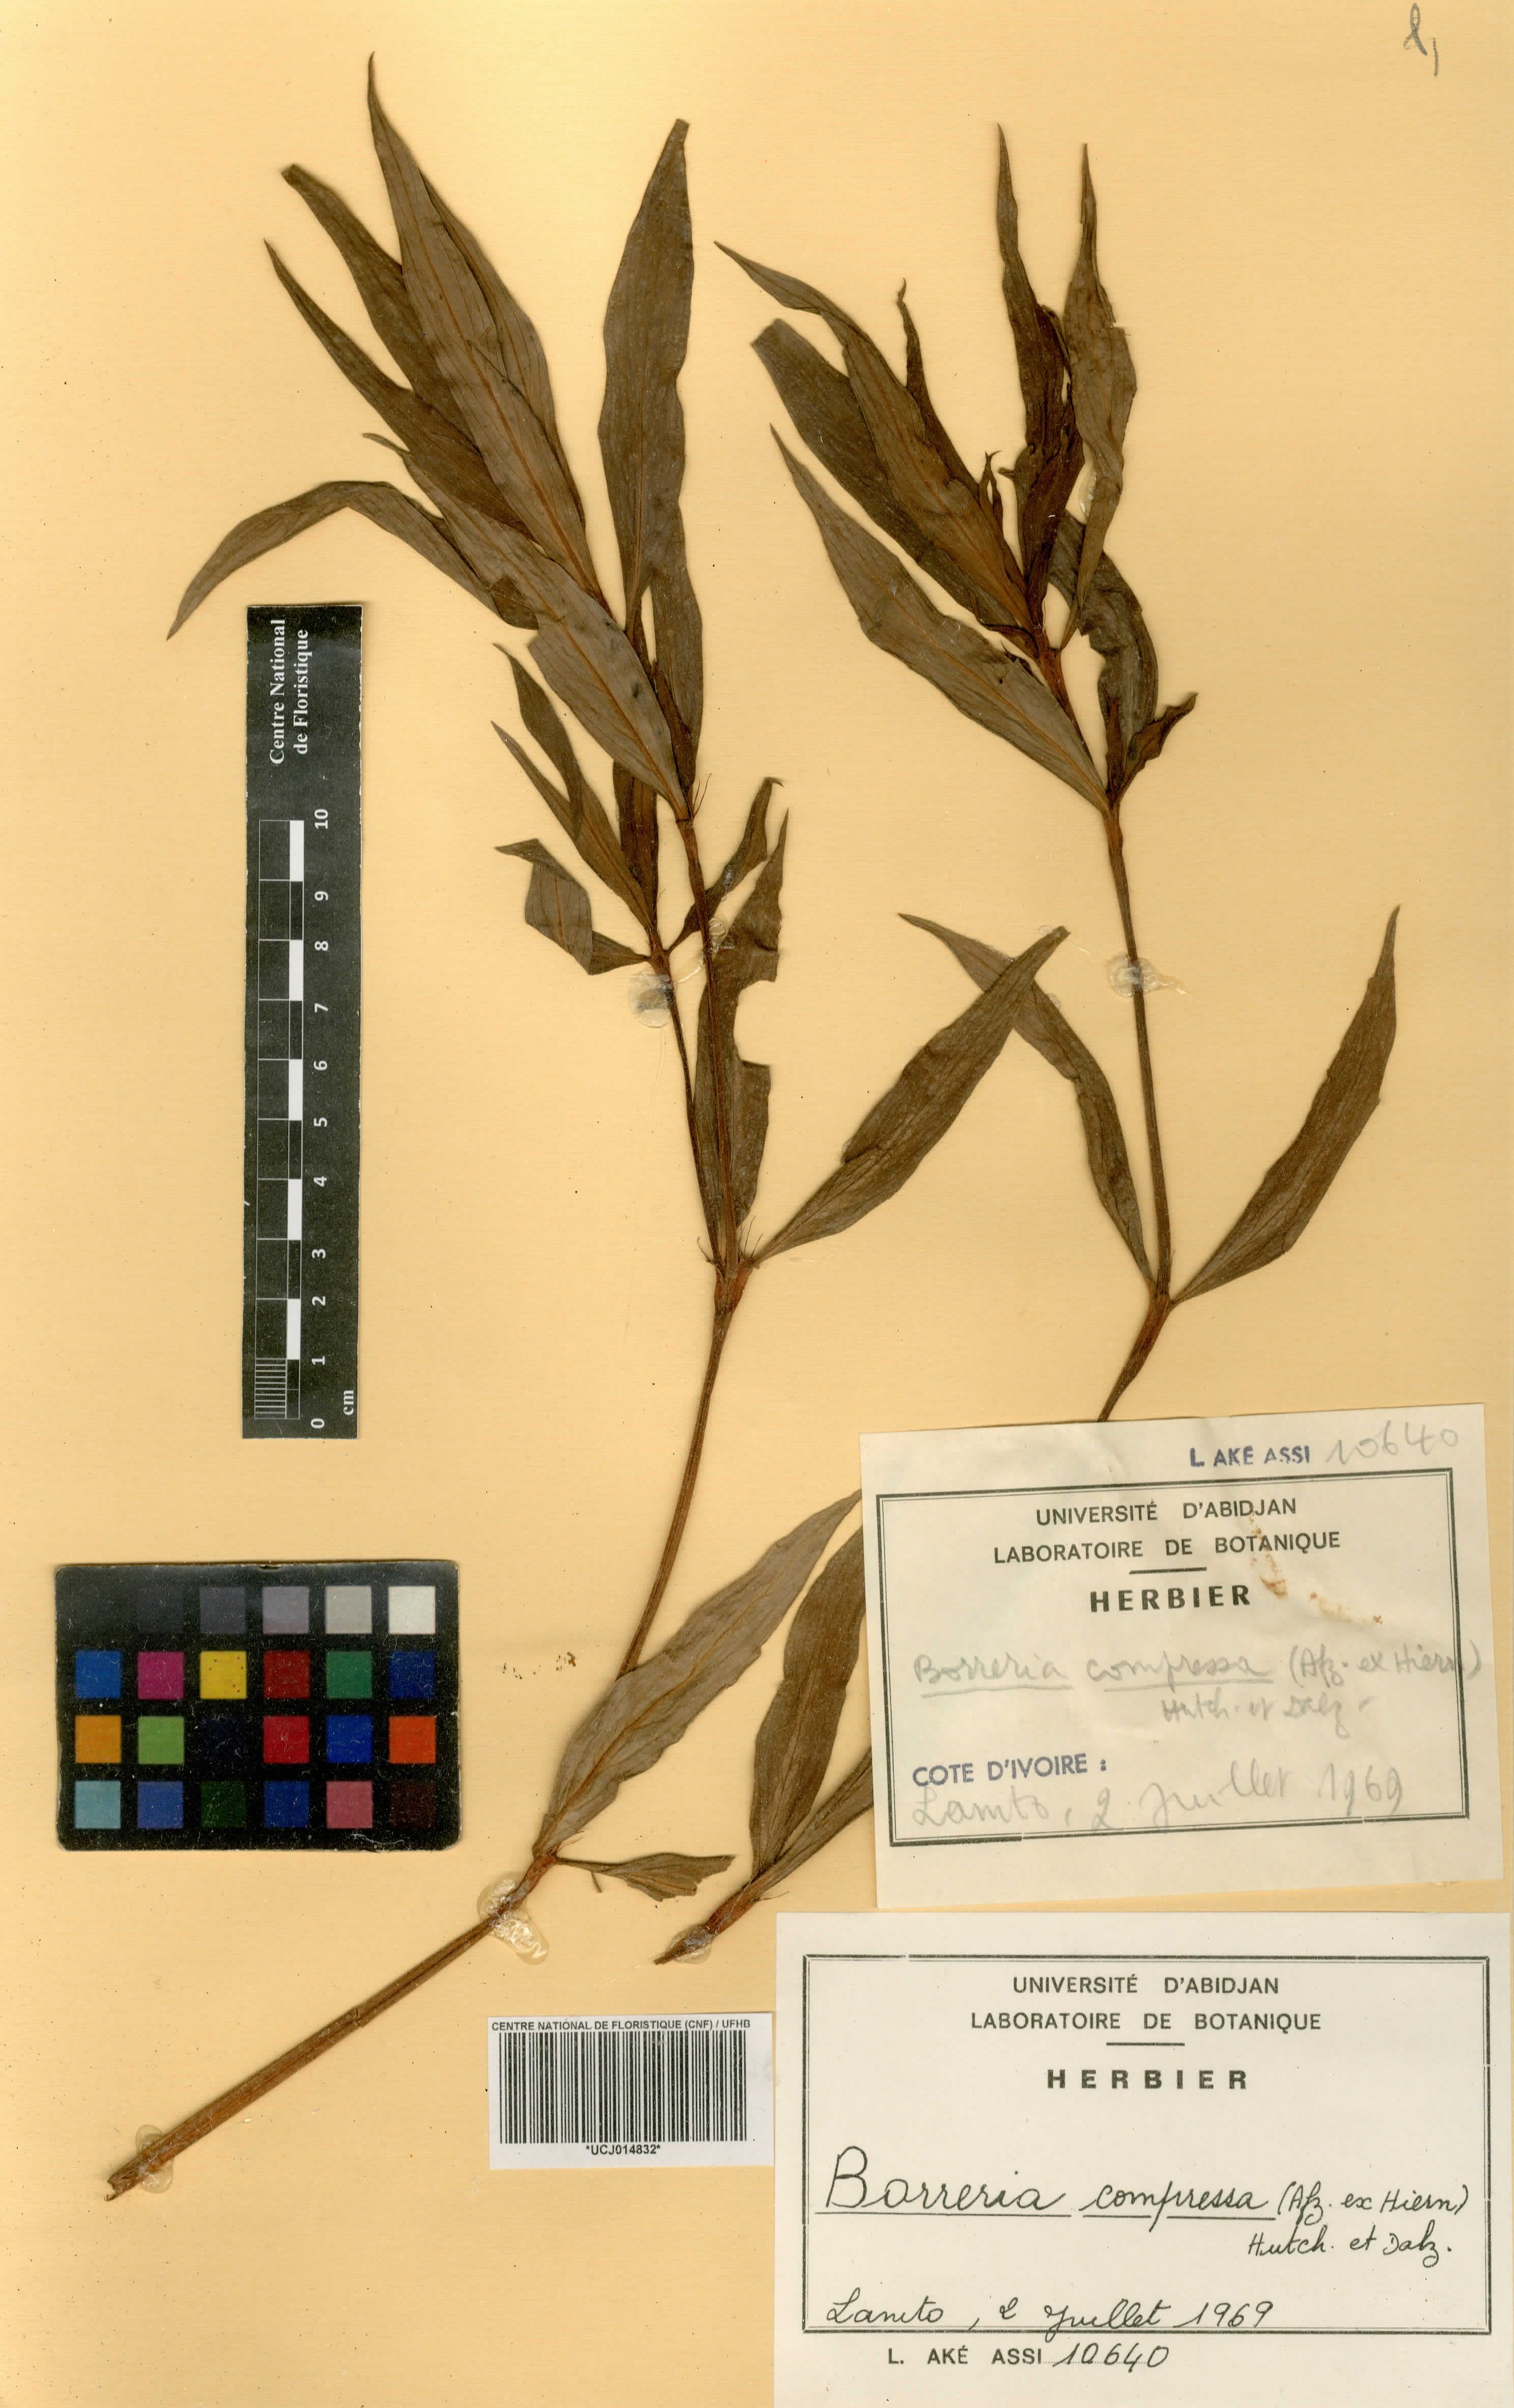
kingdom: Plantae
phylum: Tracheophyta
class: Magnoliopsida
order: Gentianales
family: Rubiaceae
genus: Spermacoce
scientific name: Spermacoce hepperiana
